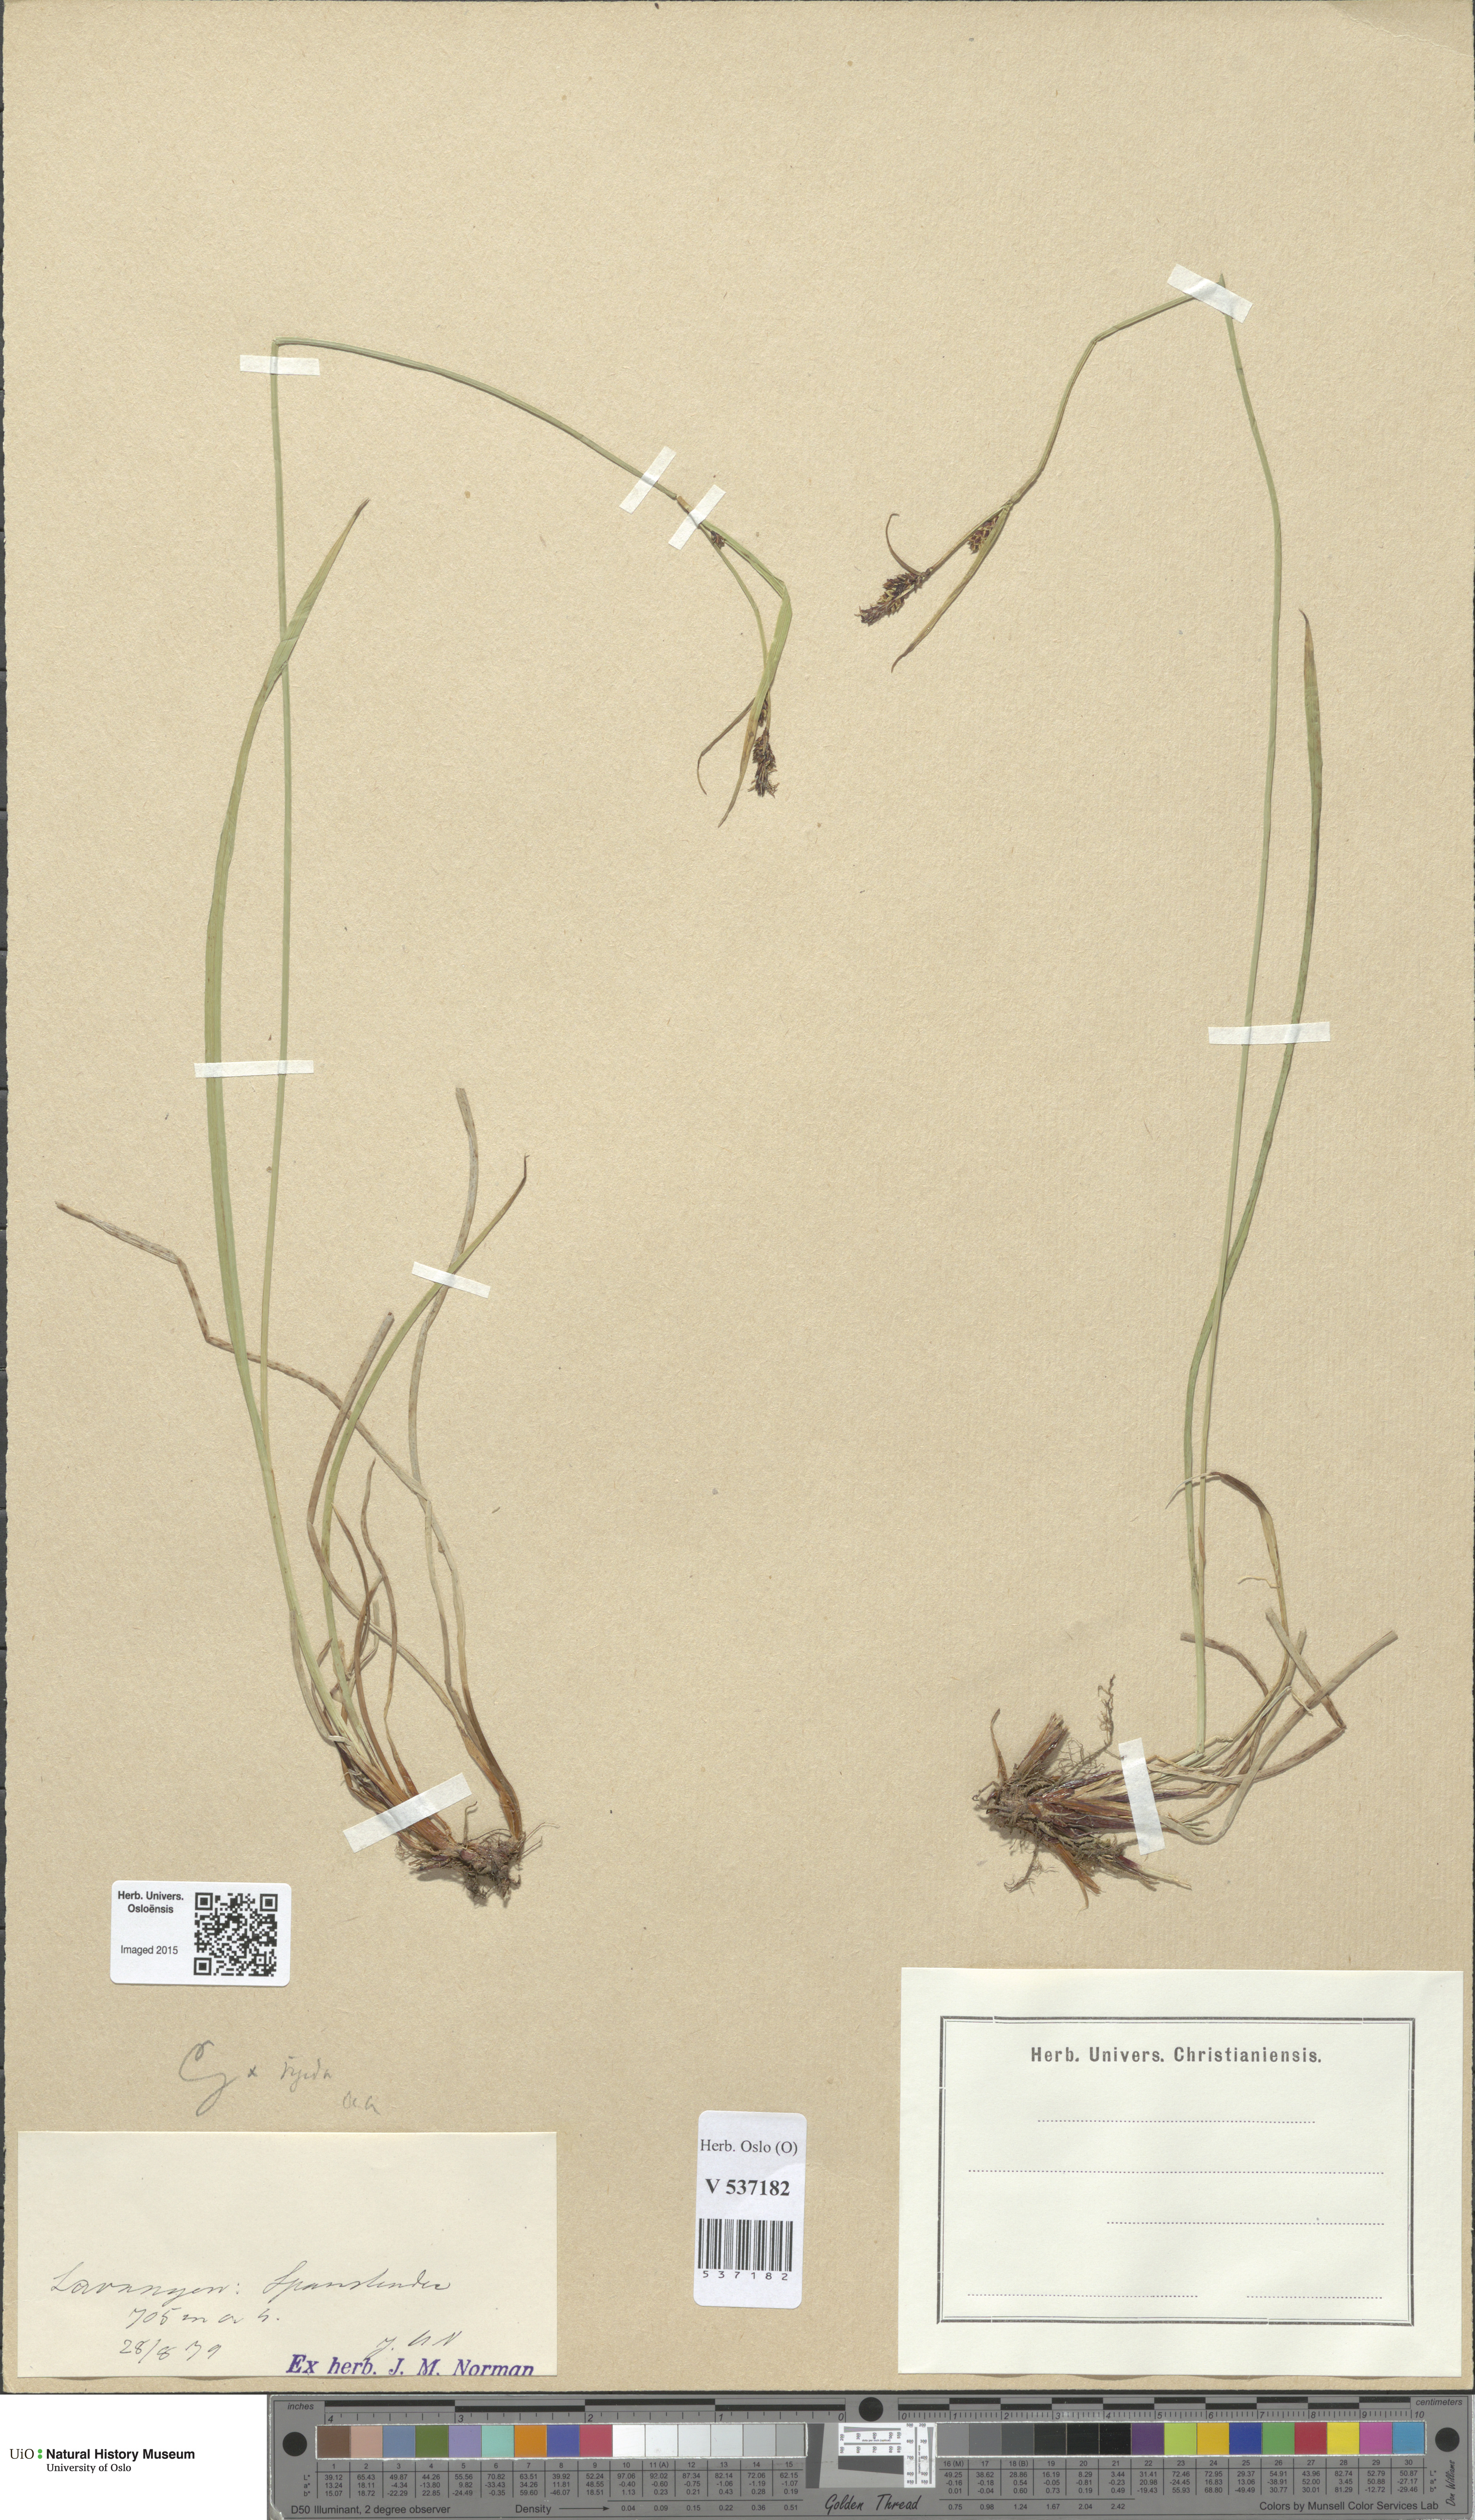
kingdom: Plantae
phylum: Tracheophyta
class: Liliopsida
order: Poales
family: Cyperaceae
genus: Carex
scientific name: Carex
